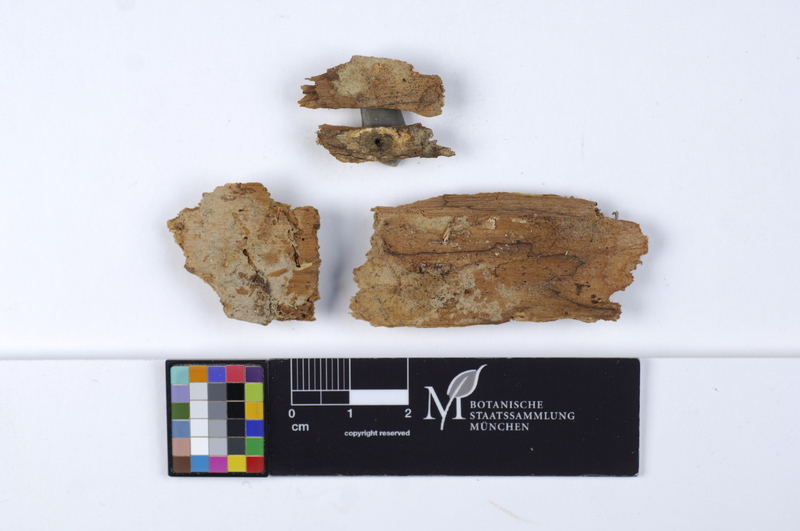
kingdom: Fungi
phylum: Basidiomycota
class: Agaricomycetes
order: Cantharellales
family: Botryobasidiaceae
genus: Botryobasidium
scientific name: Botryobasidium conspersum
